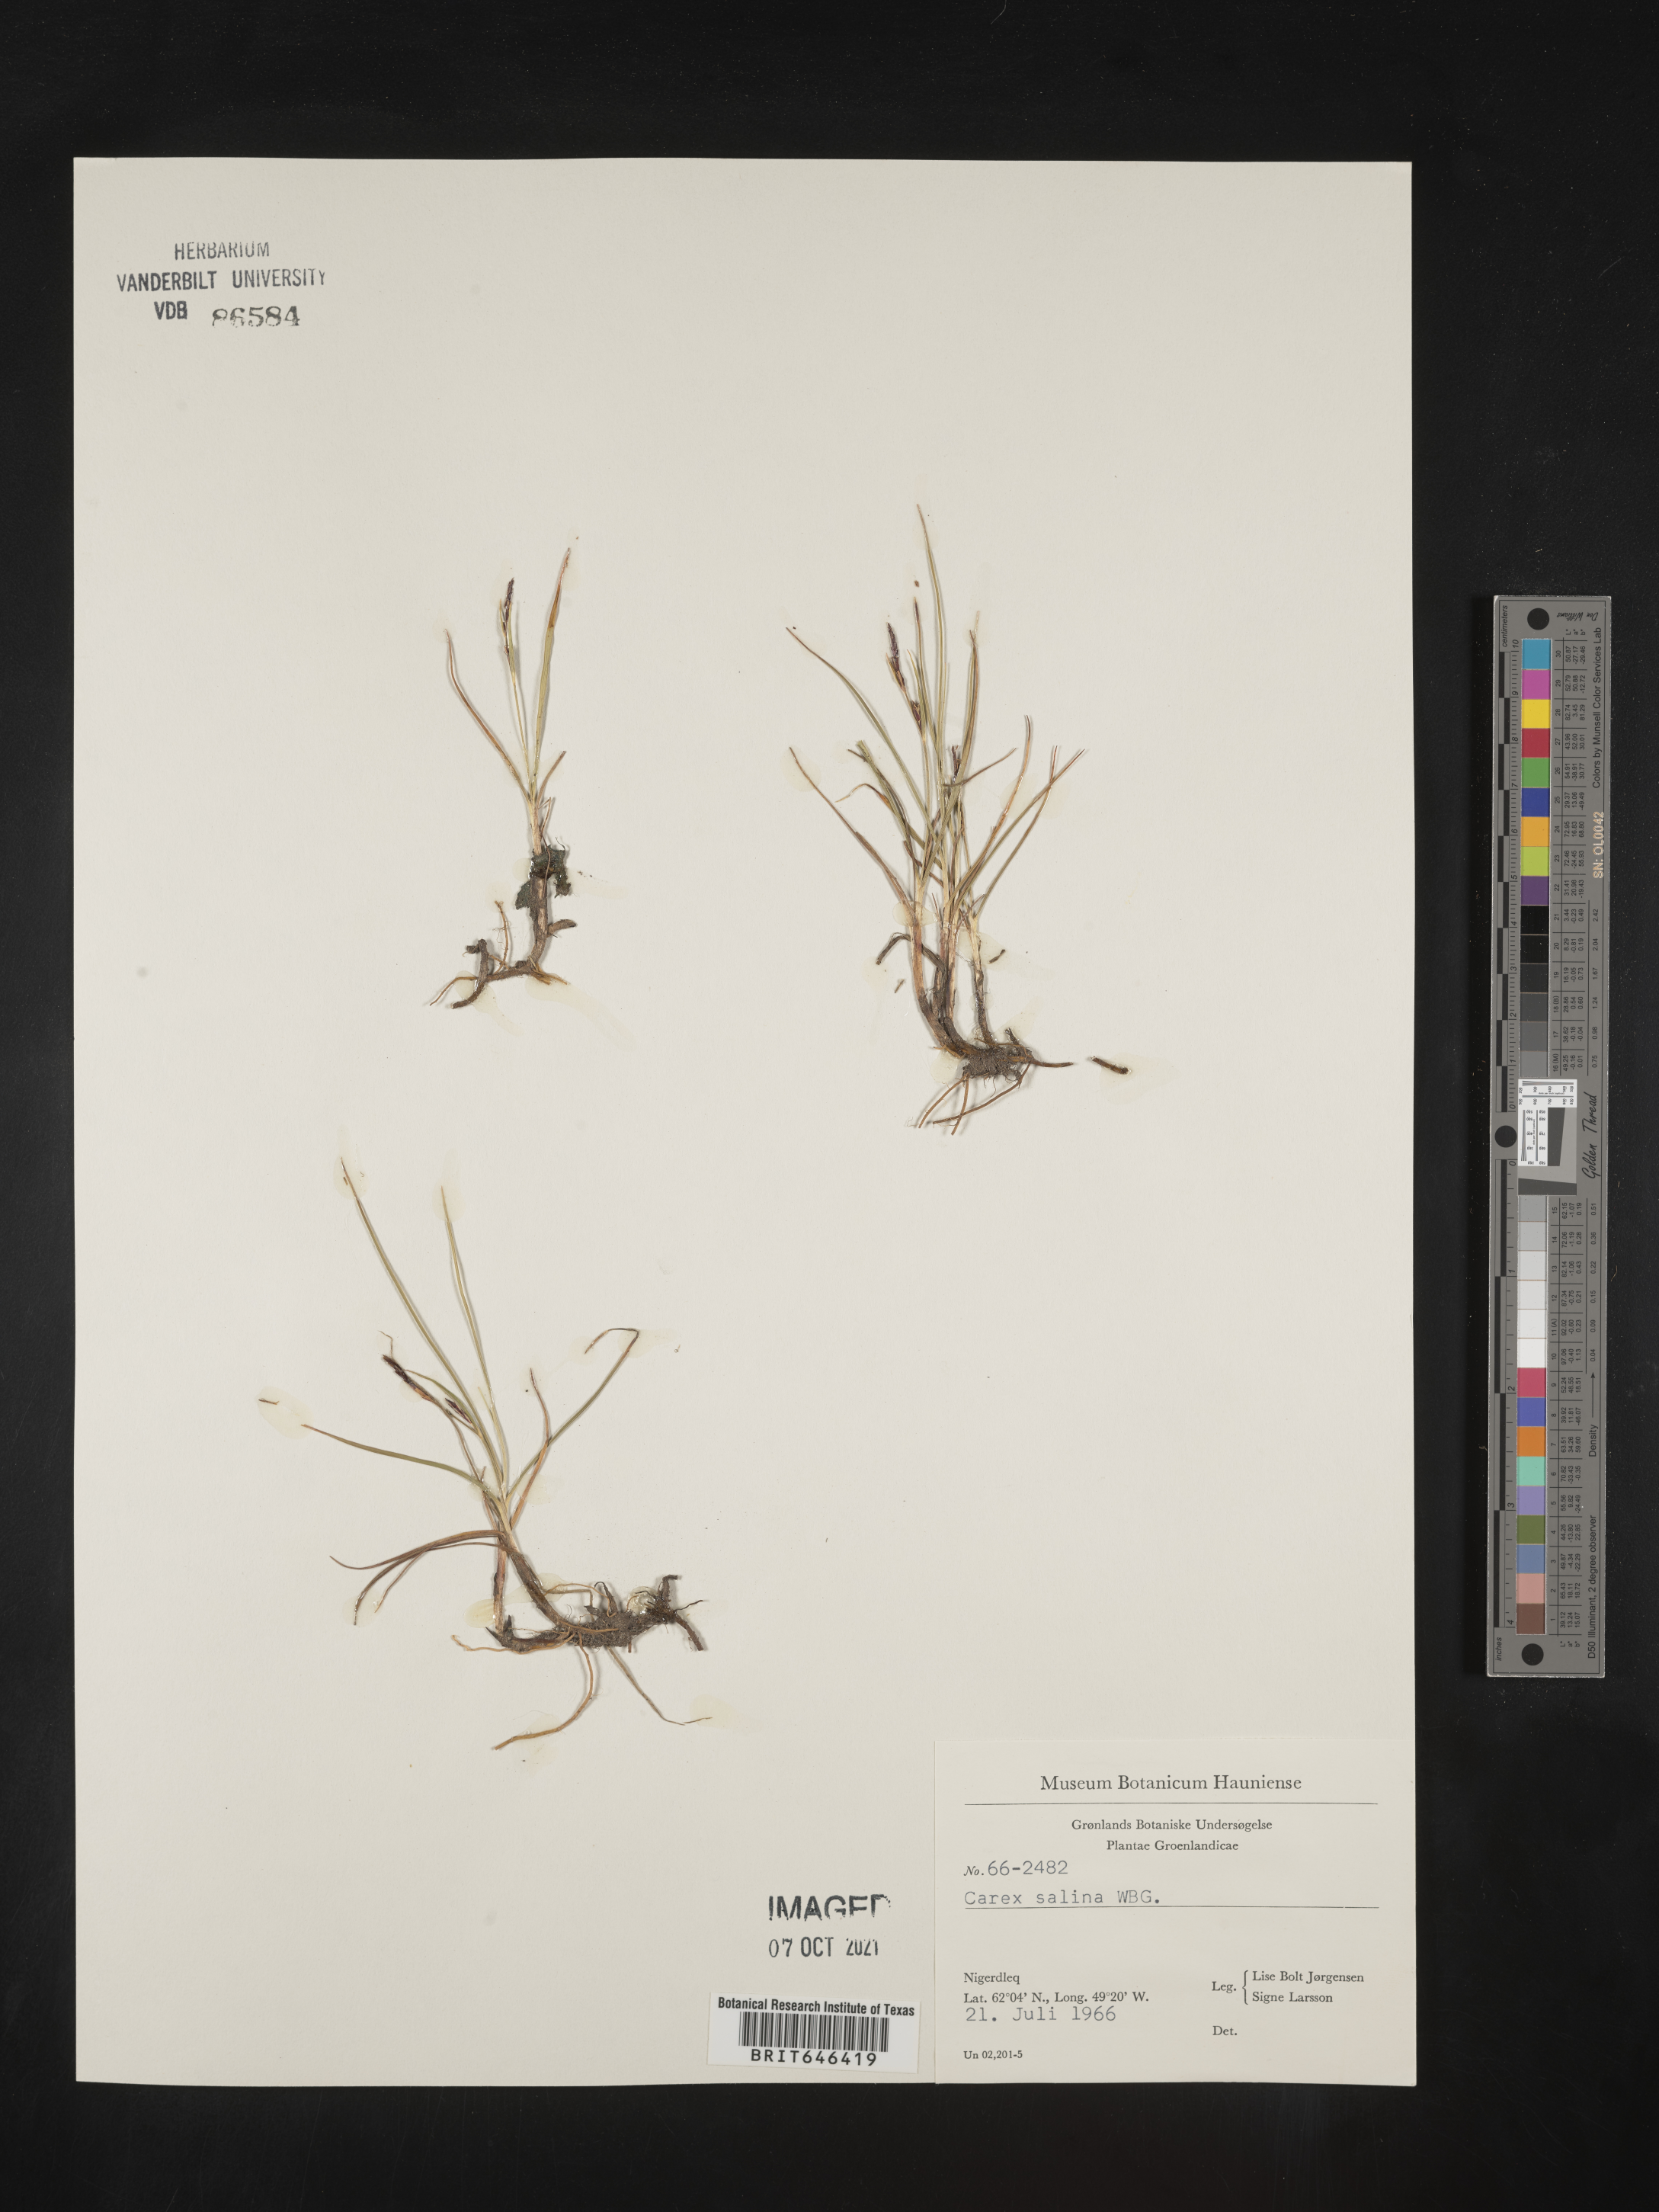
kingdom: Plantae
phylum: Tracheophyta
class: Liliopsida
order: Poales
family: Cyperaceae
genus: Carex
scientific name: Carex salina
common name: Saltmarsh sedge
